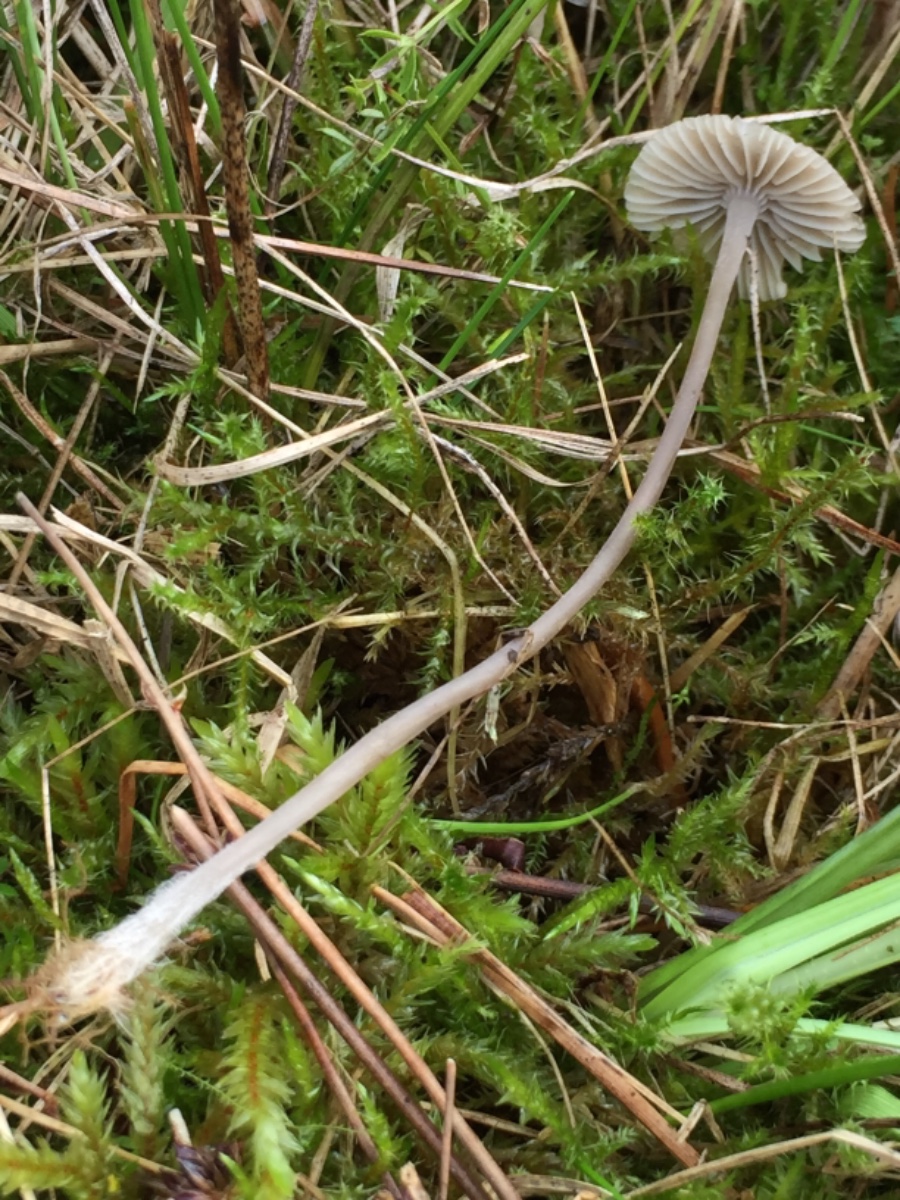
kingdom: Fungi
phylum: Basidiomycota
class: Agaricomycetes
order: Agaricales
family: Mycenaceae
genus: Mycena
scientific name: Mycena
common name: huesvamp
